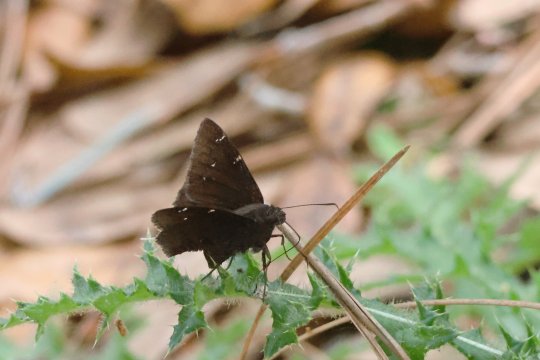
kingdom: Animalia
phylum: Arthropoda
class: Insecta
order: Lepidoptera
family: Hesperiidae
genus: Autochton
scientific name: Autochton
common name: Northern Cloudywing
